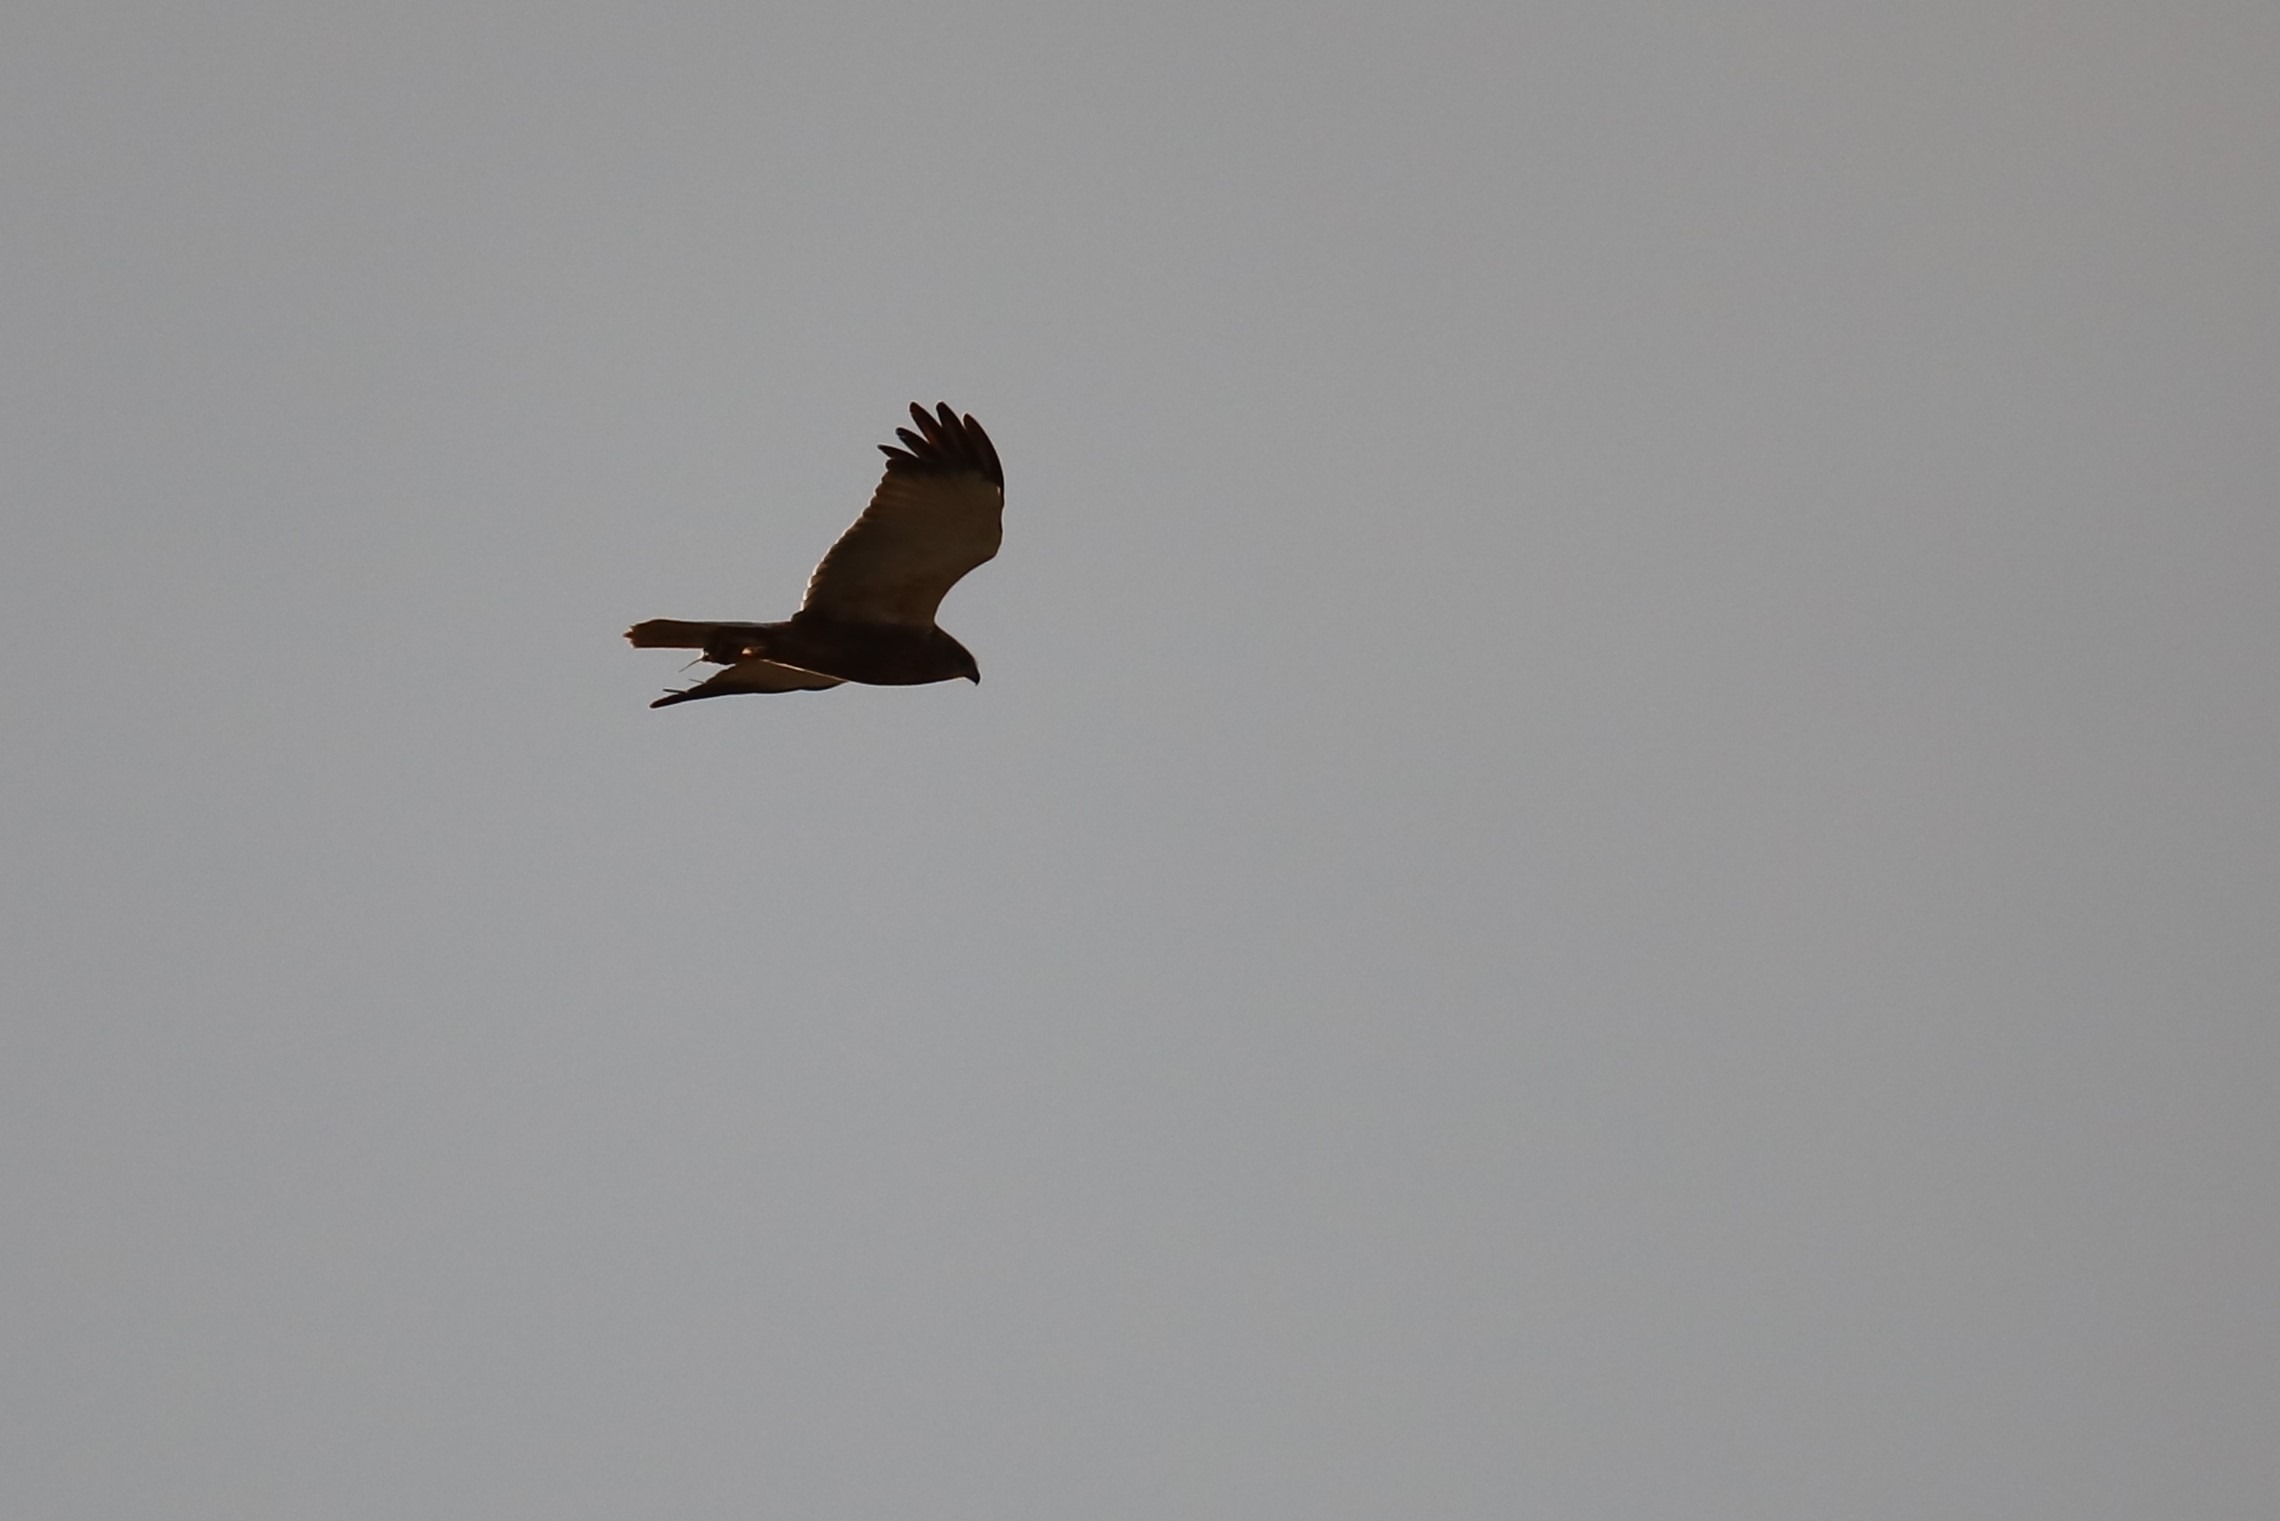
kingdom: Animalia
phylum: Chordata
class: Aves
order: Accipitriformes
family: Accipitridae
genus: Circus
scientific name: Circus aeruginosus
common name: Rørhøg
